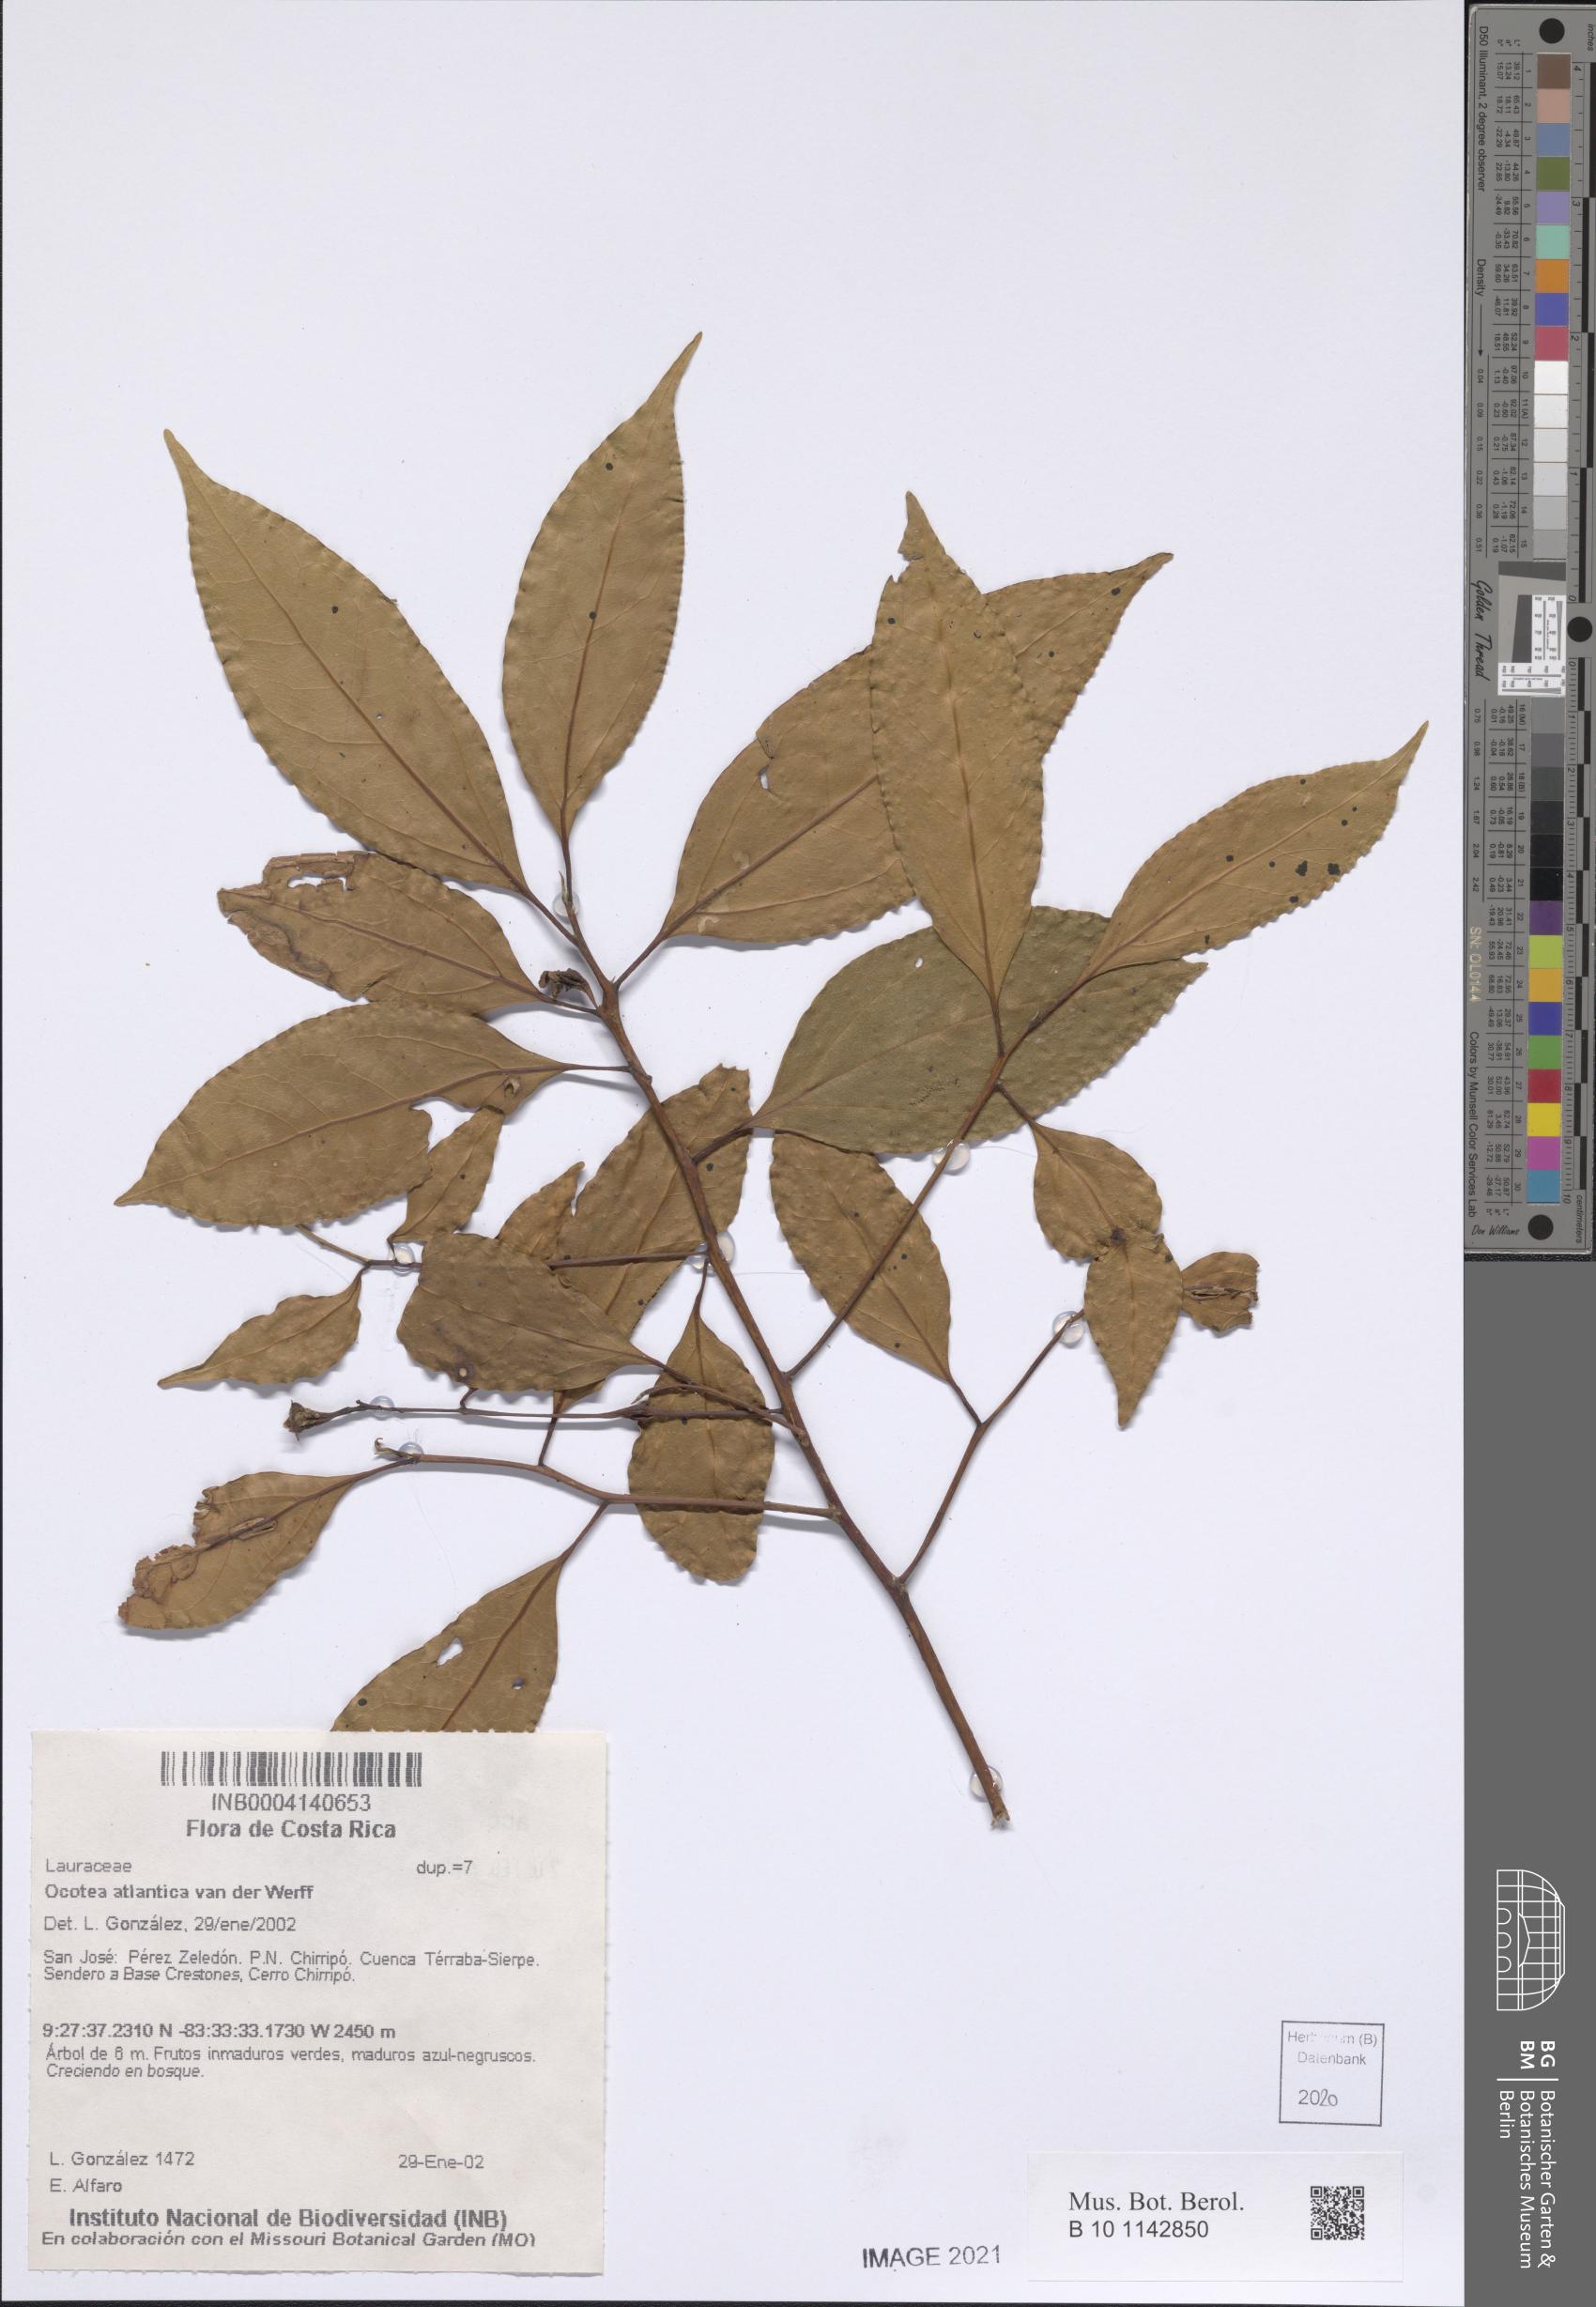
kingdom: Plantae
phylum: Tracheophyta
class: Magnoliopsida
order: Laurales
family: Lauraceae
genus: Ocotea
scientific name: Ocotea atlantica
